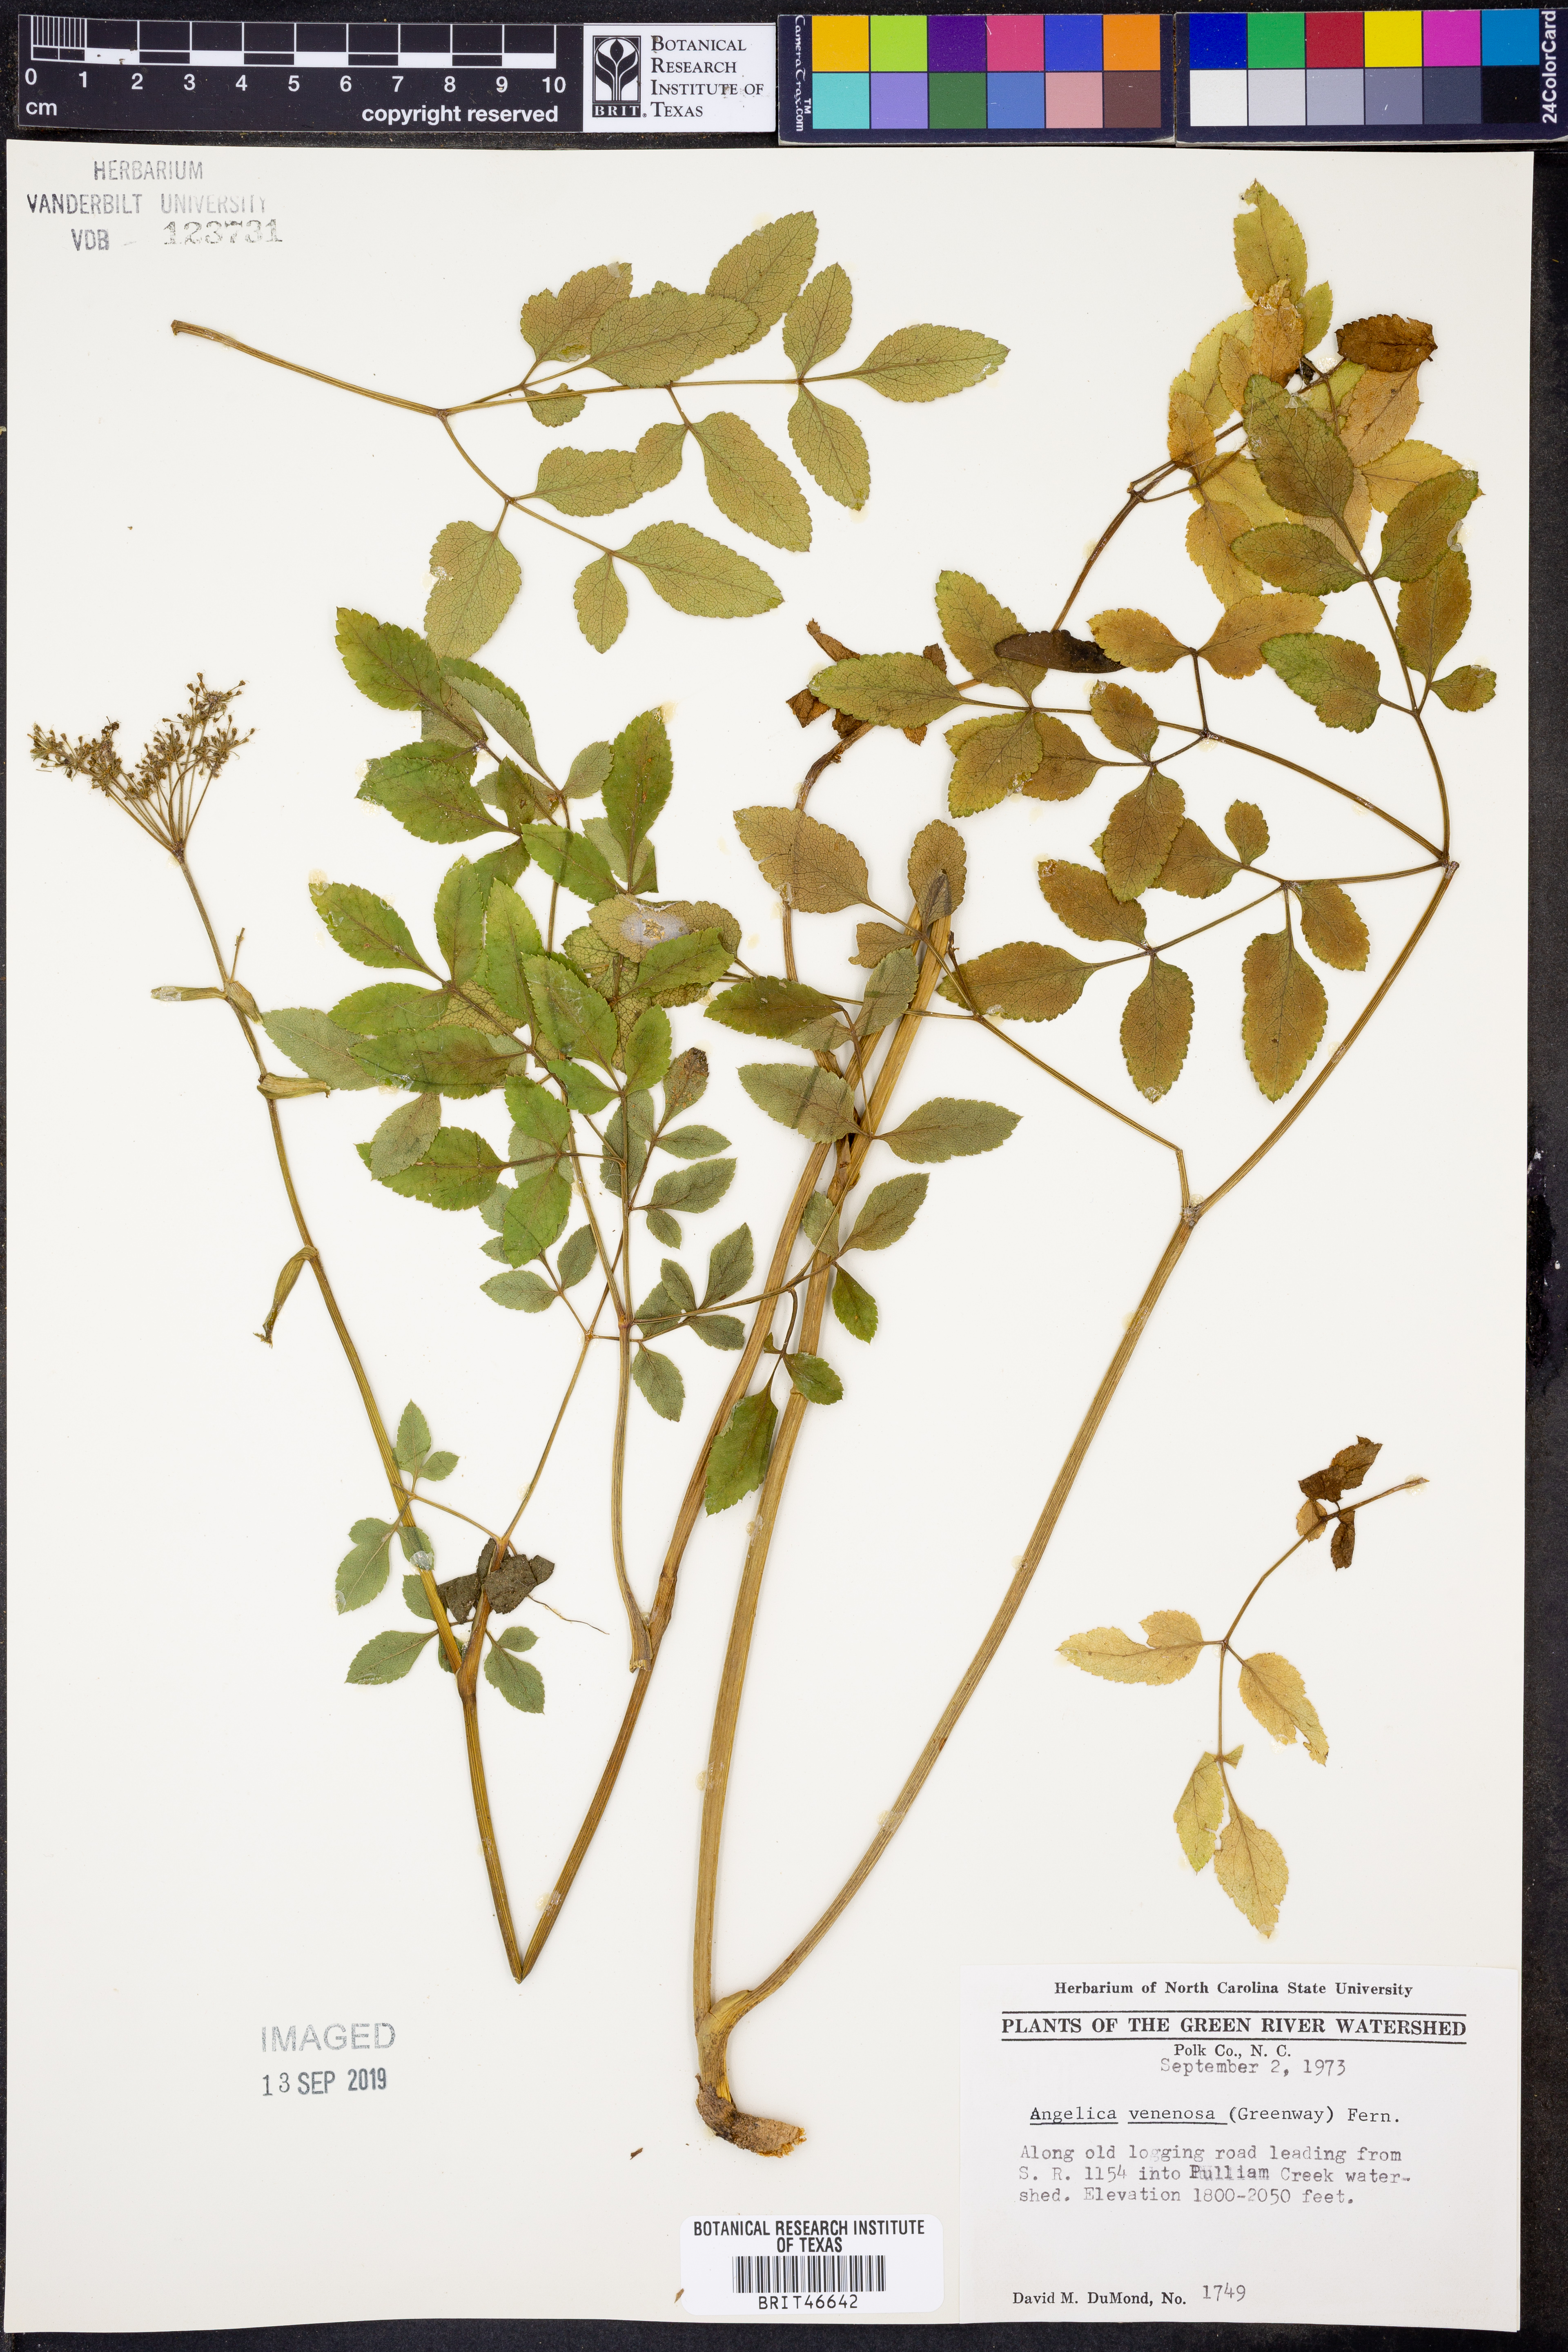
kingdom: Plantae
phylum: Tracheophyta
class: Magnoliopsida
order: Apiales
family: Apiaceae
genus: Angelica
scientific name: Angelica venenosa
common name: Hairy angelica
